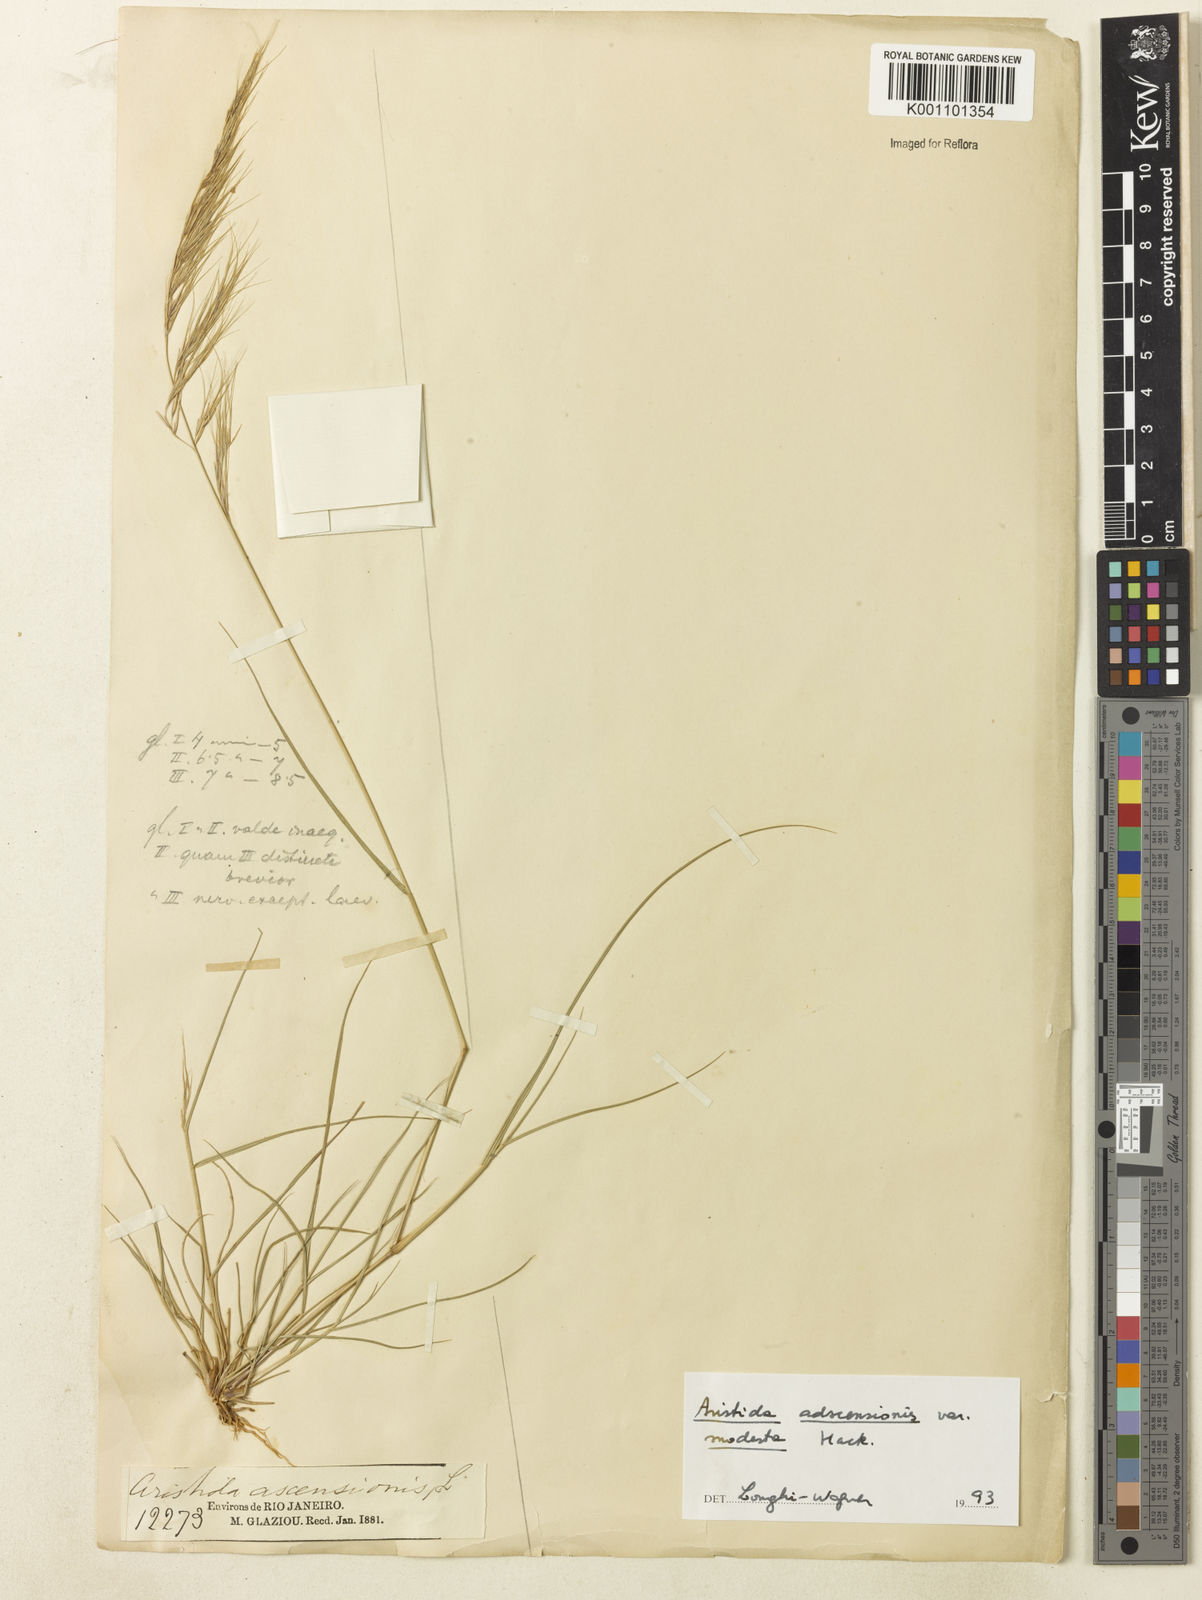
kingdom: Plantae
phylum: Tracheophyta
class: Liliopsida
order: Poales
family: Poaceae
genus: Aristida
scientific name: Aristida adscensionis
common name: Sixweeks threeawn
